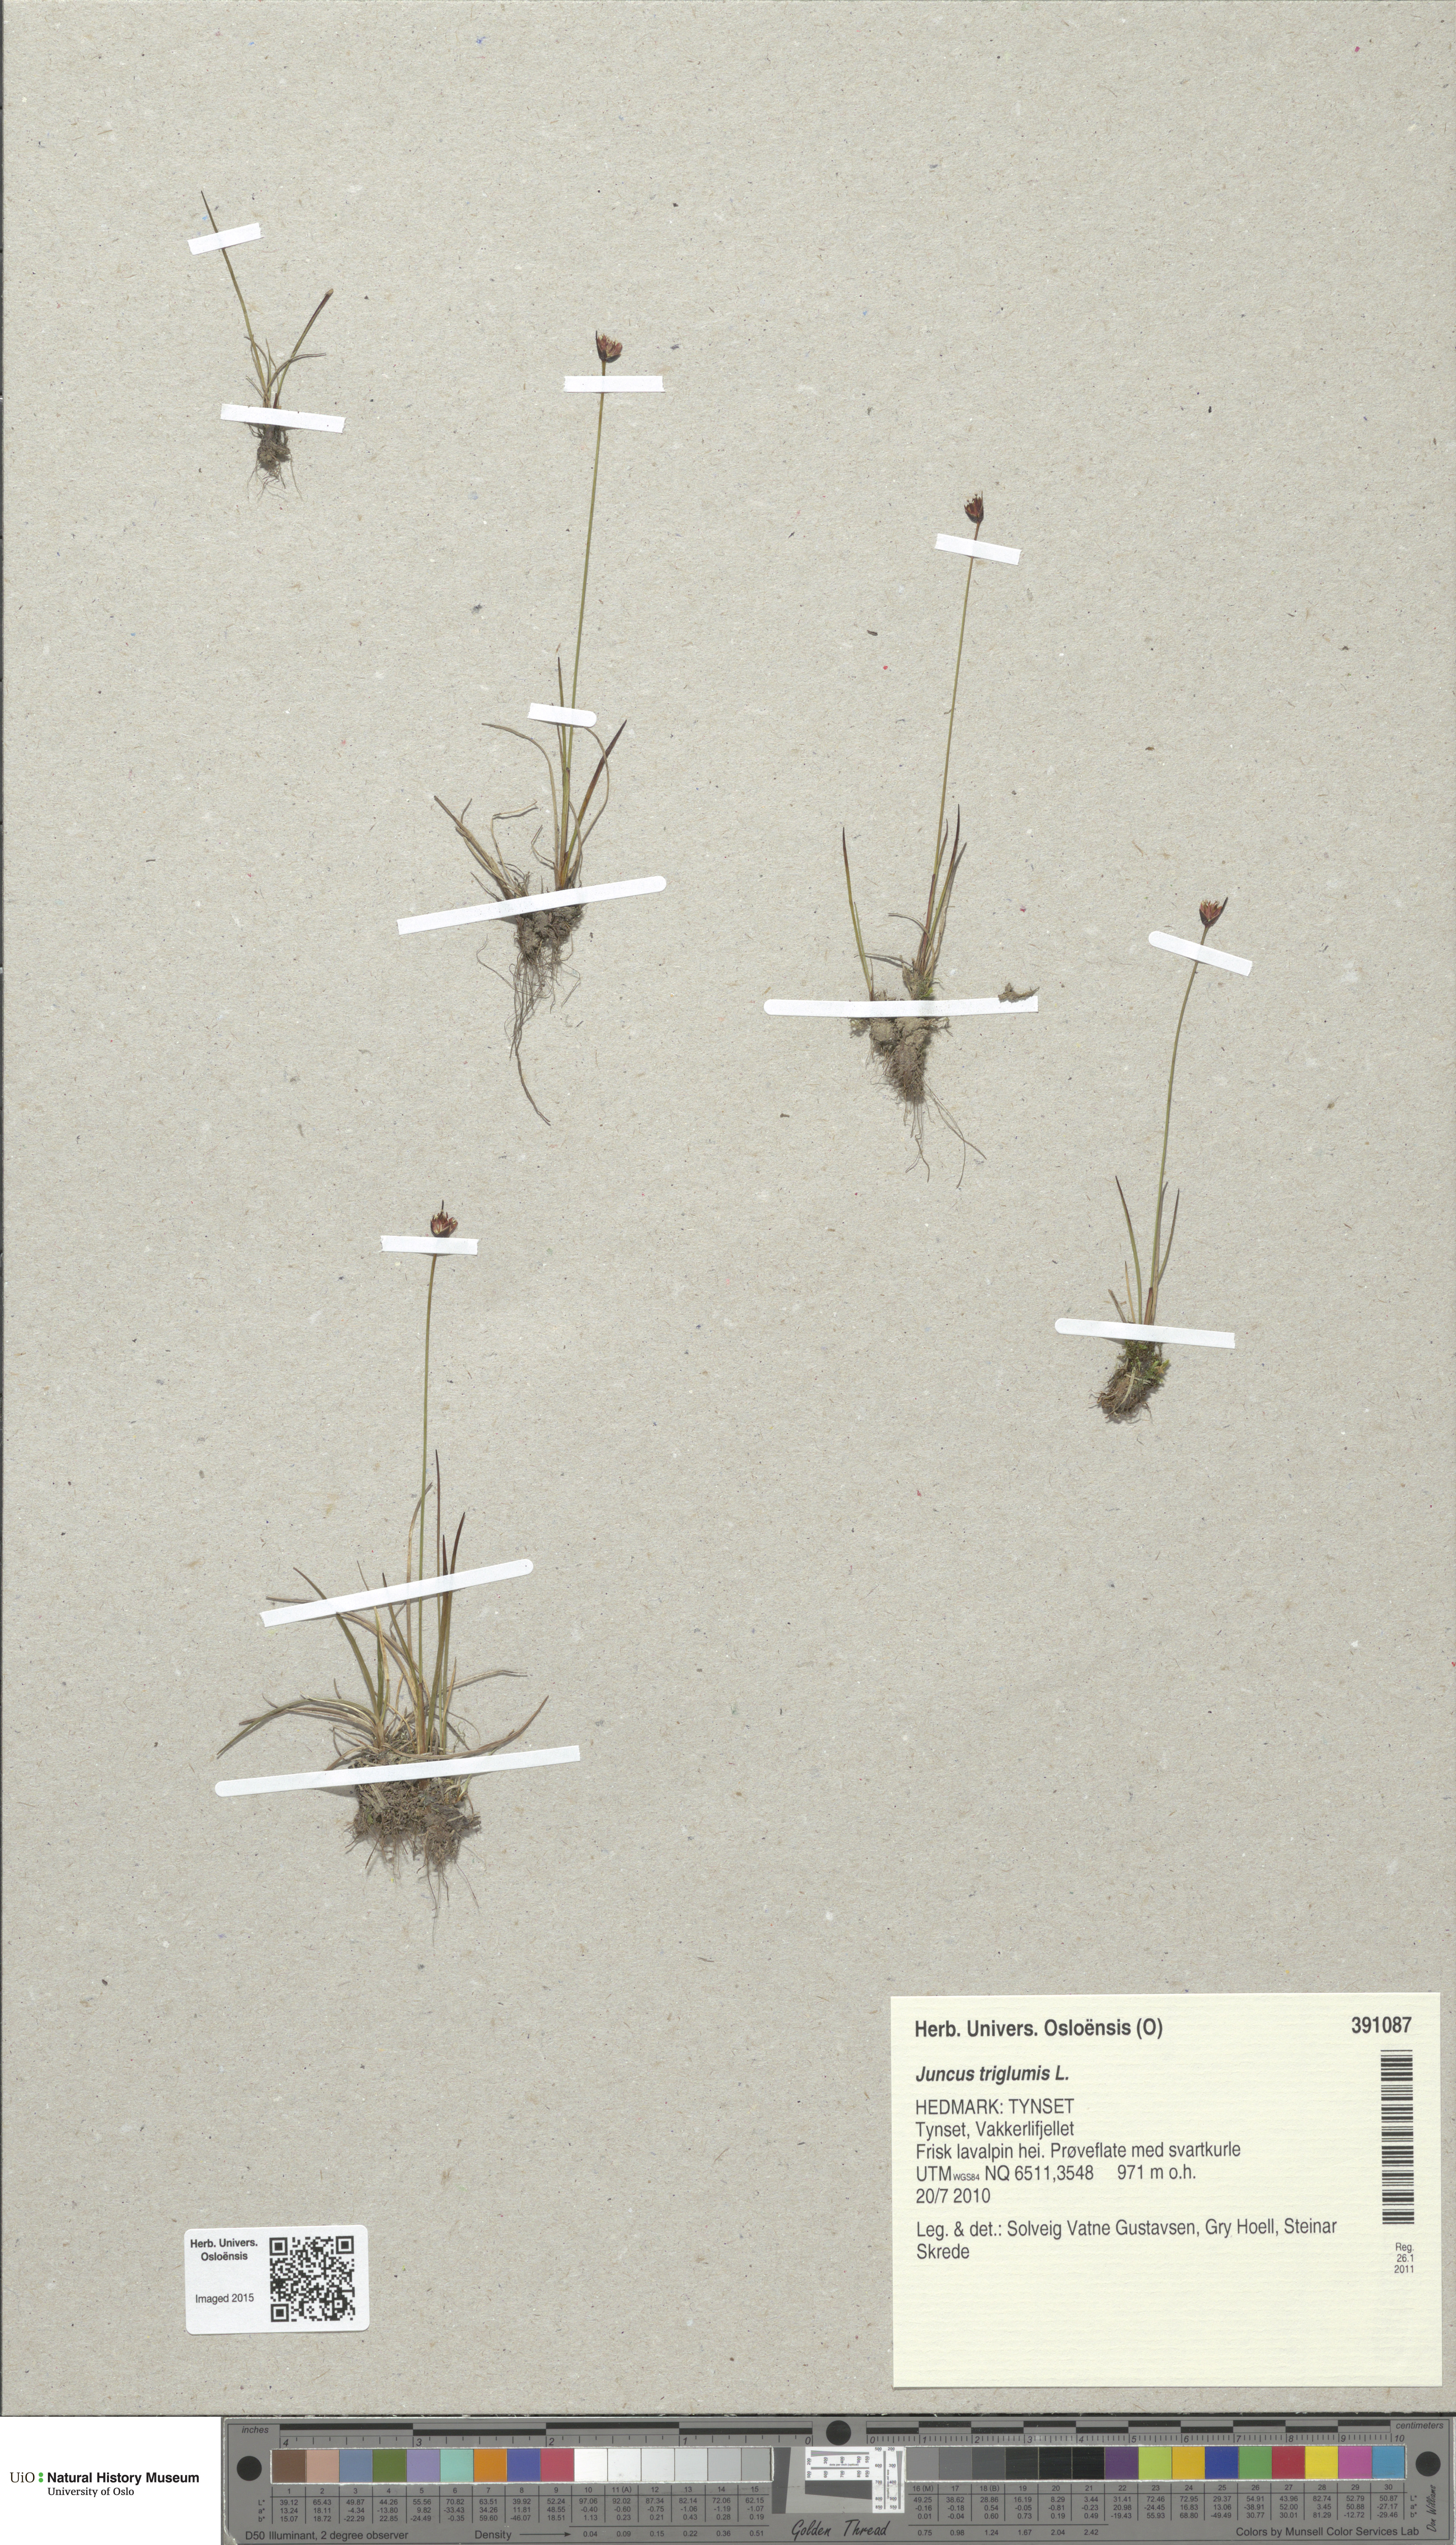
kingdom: Plantae
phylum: Tracheophyta
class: Liliopsida
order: Poales
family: Juncaceae
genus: Juncus
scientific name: Juncus triglumis
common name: Three-flowered rush
